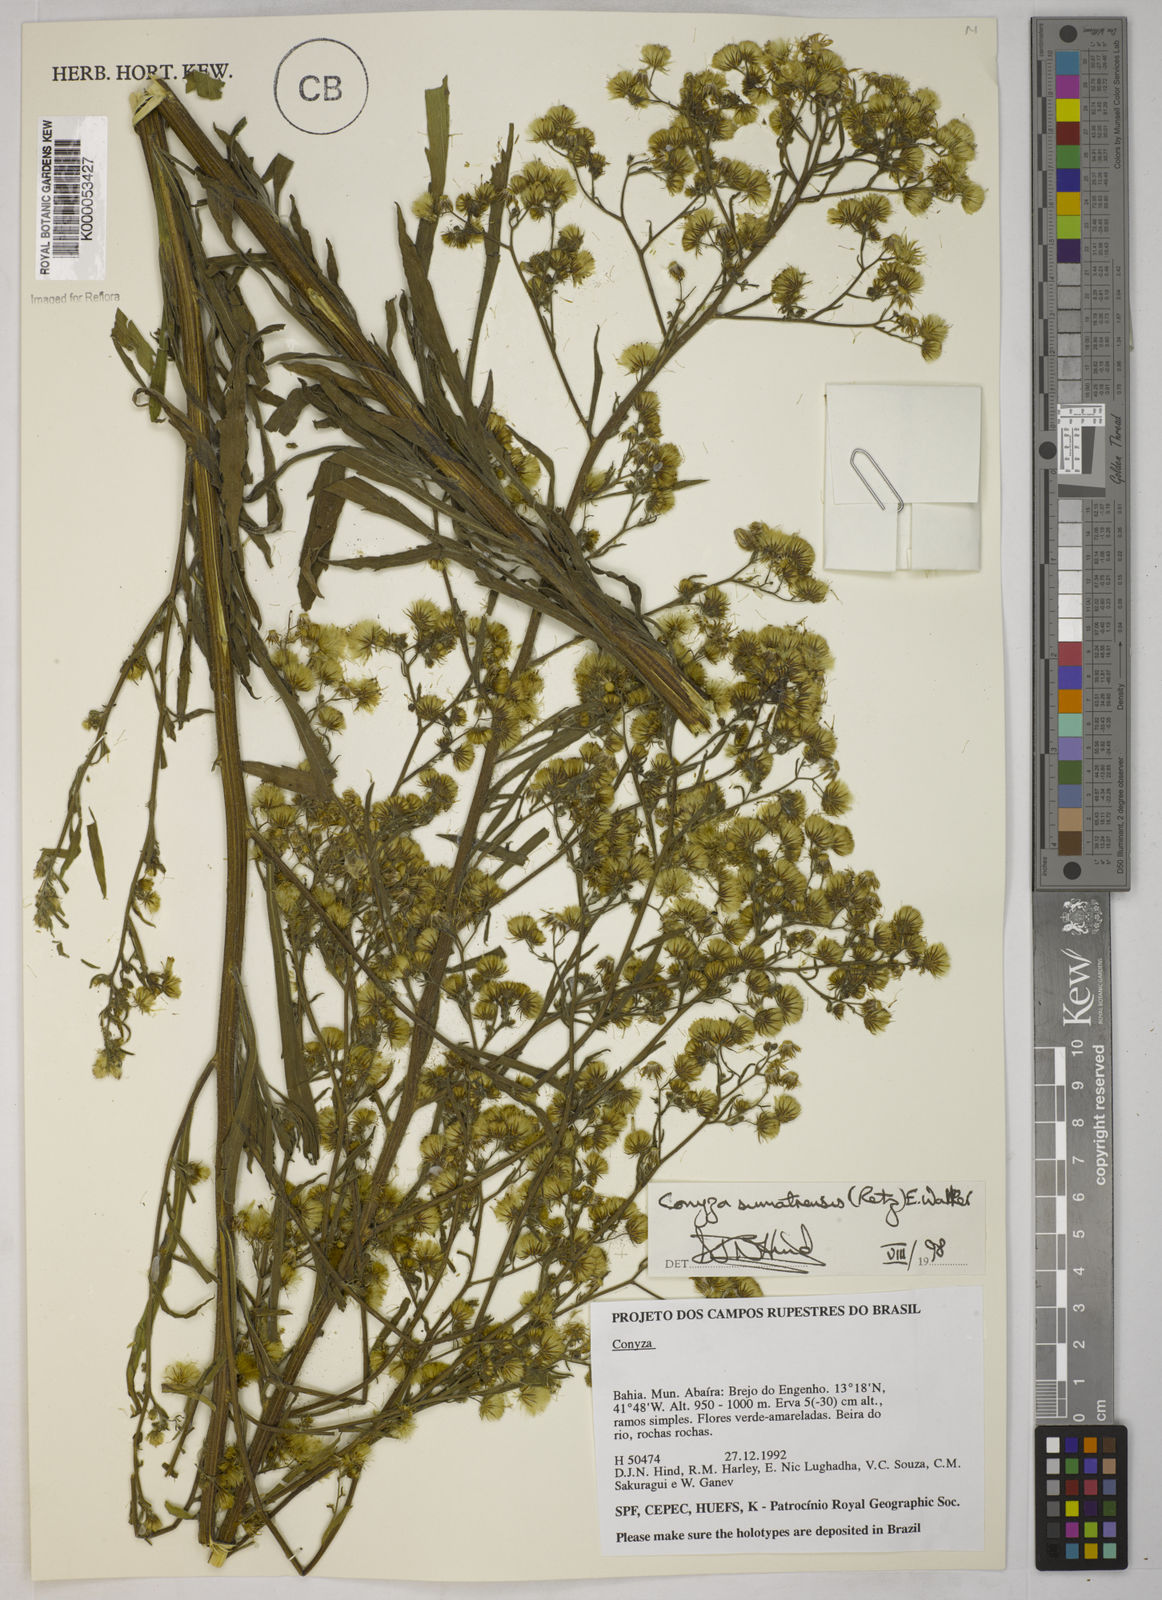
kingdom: Plantae
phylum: Tracheophyta
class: Magnoliopsida
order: Asterales
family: Asteraceae
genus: Erigeron
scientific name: Erigeron sumatrensis
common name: Daisy
